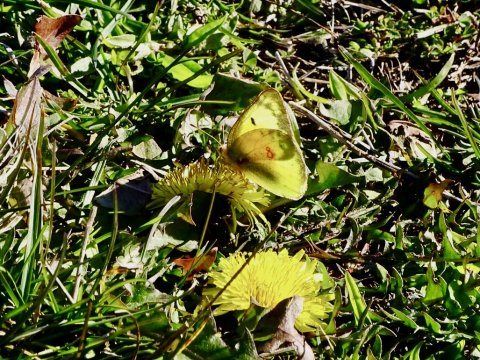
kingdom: Animalia
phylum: Arthropoda
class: Insecta
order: Lepidoptera
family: Pieridae
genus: Colias
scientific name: Colias eurytheme
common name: Orange Sulphur
